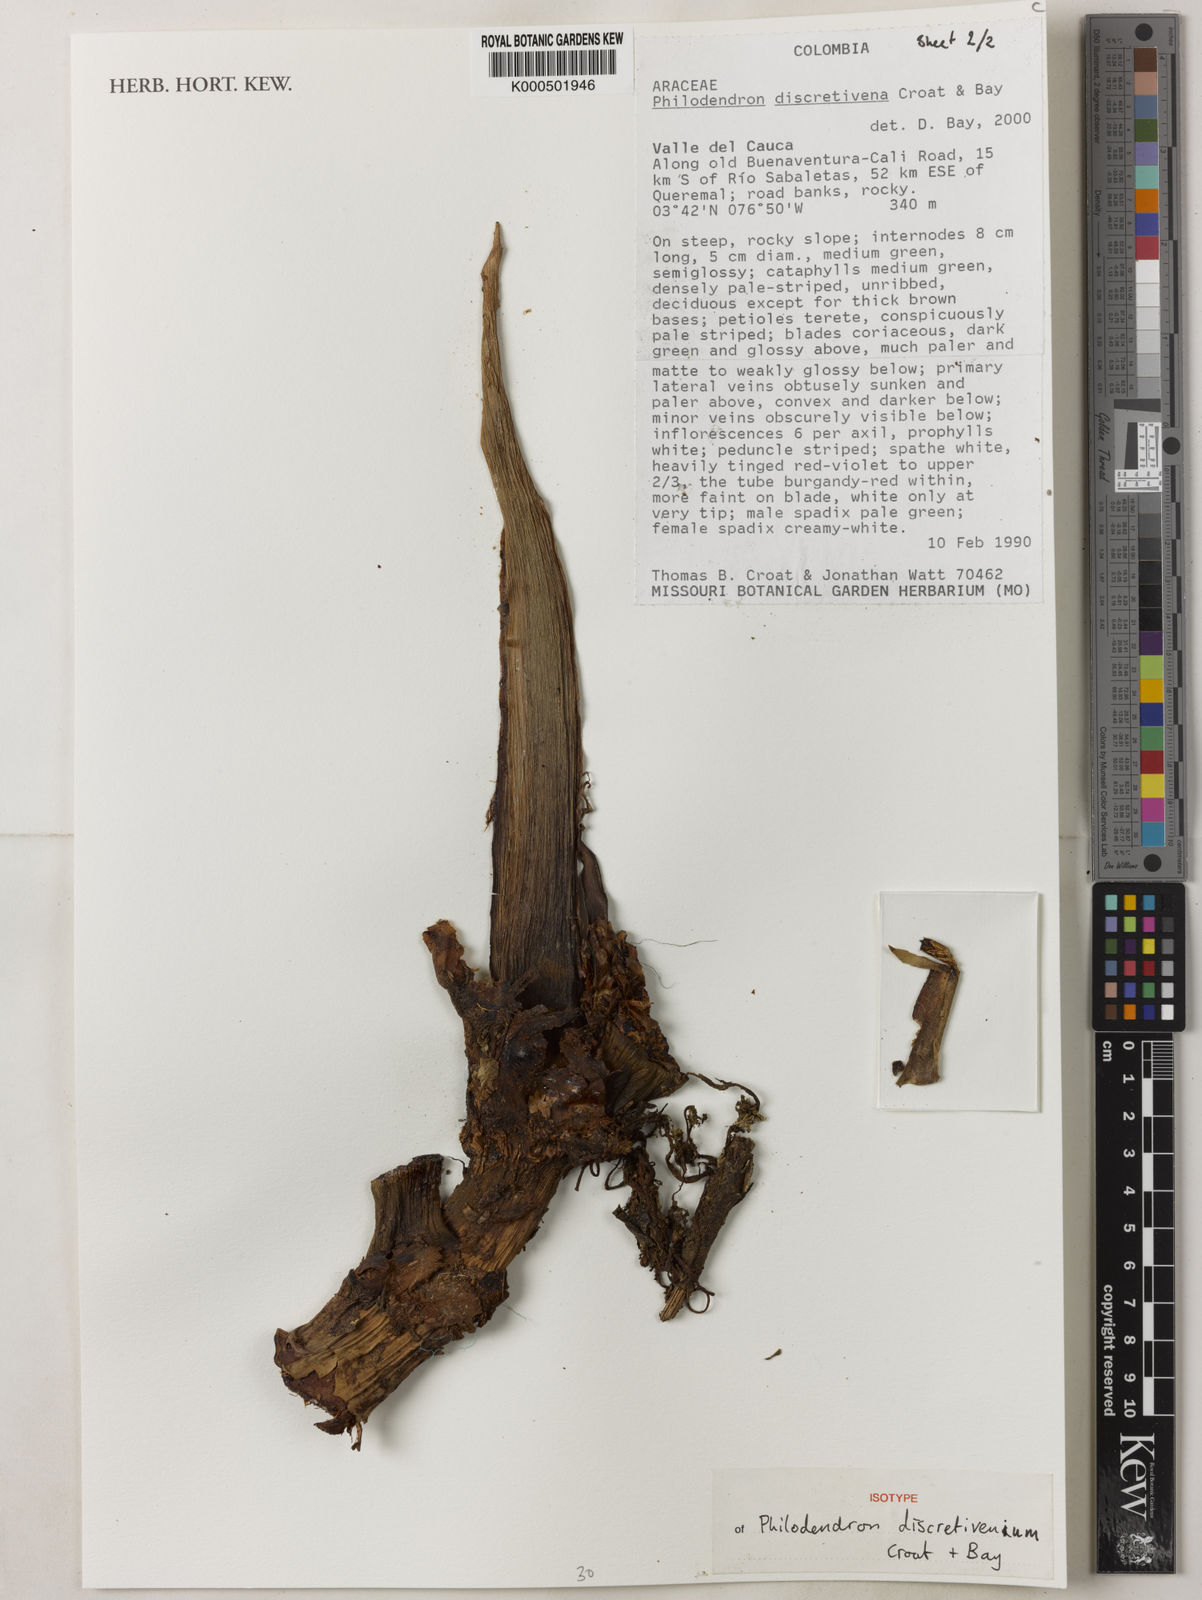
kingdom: Plantae
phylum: Tracheophyta
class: Liliopsida
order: Alismatales
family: Araceae
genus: Philodendron
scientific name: Philodendron discretivenium
